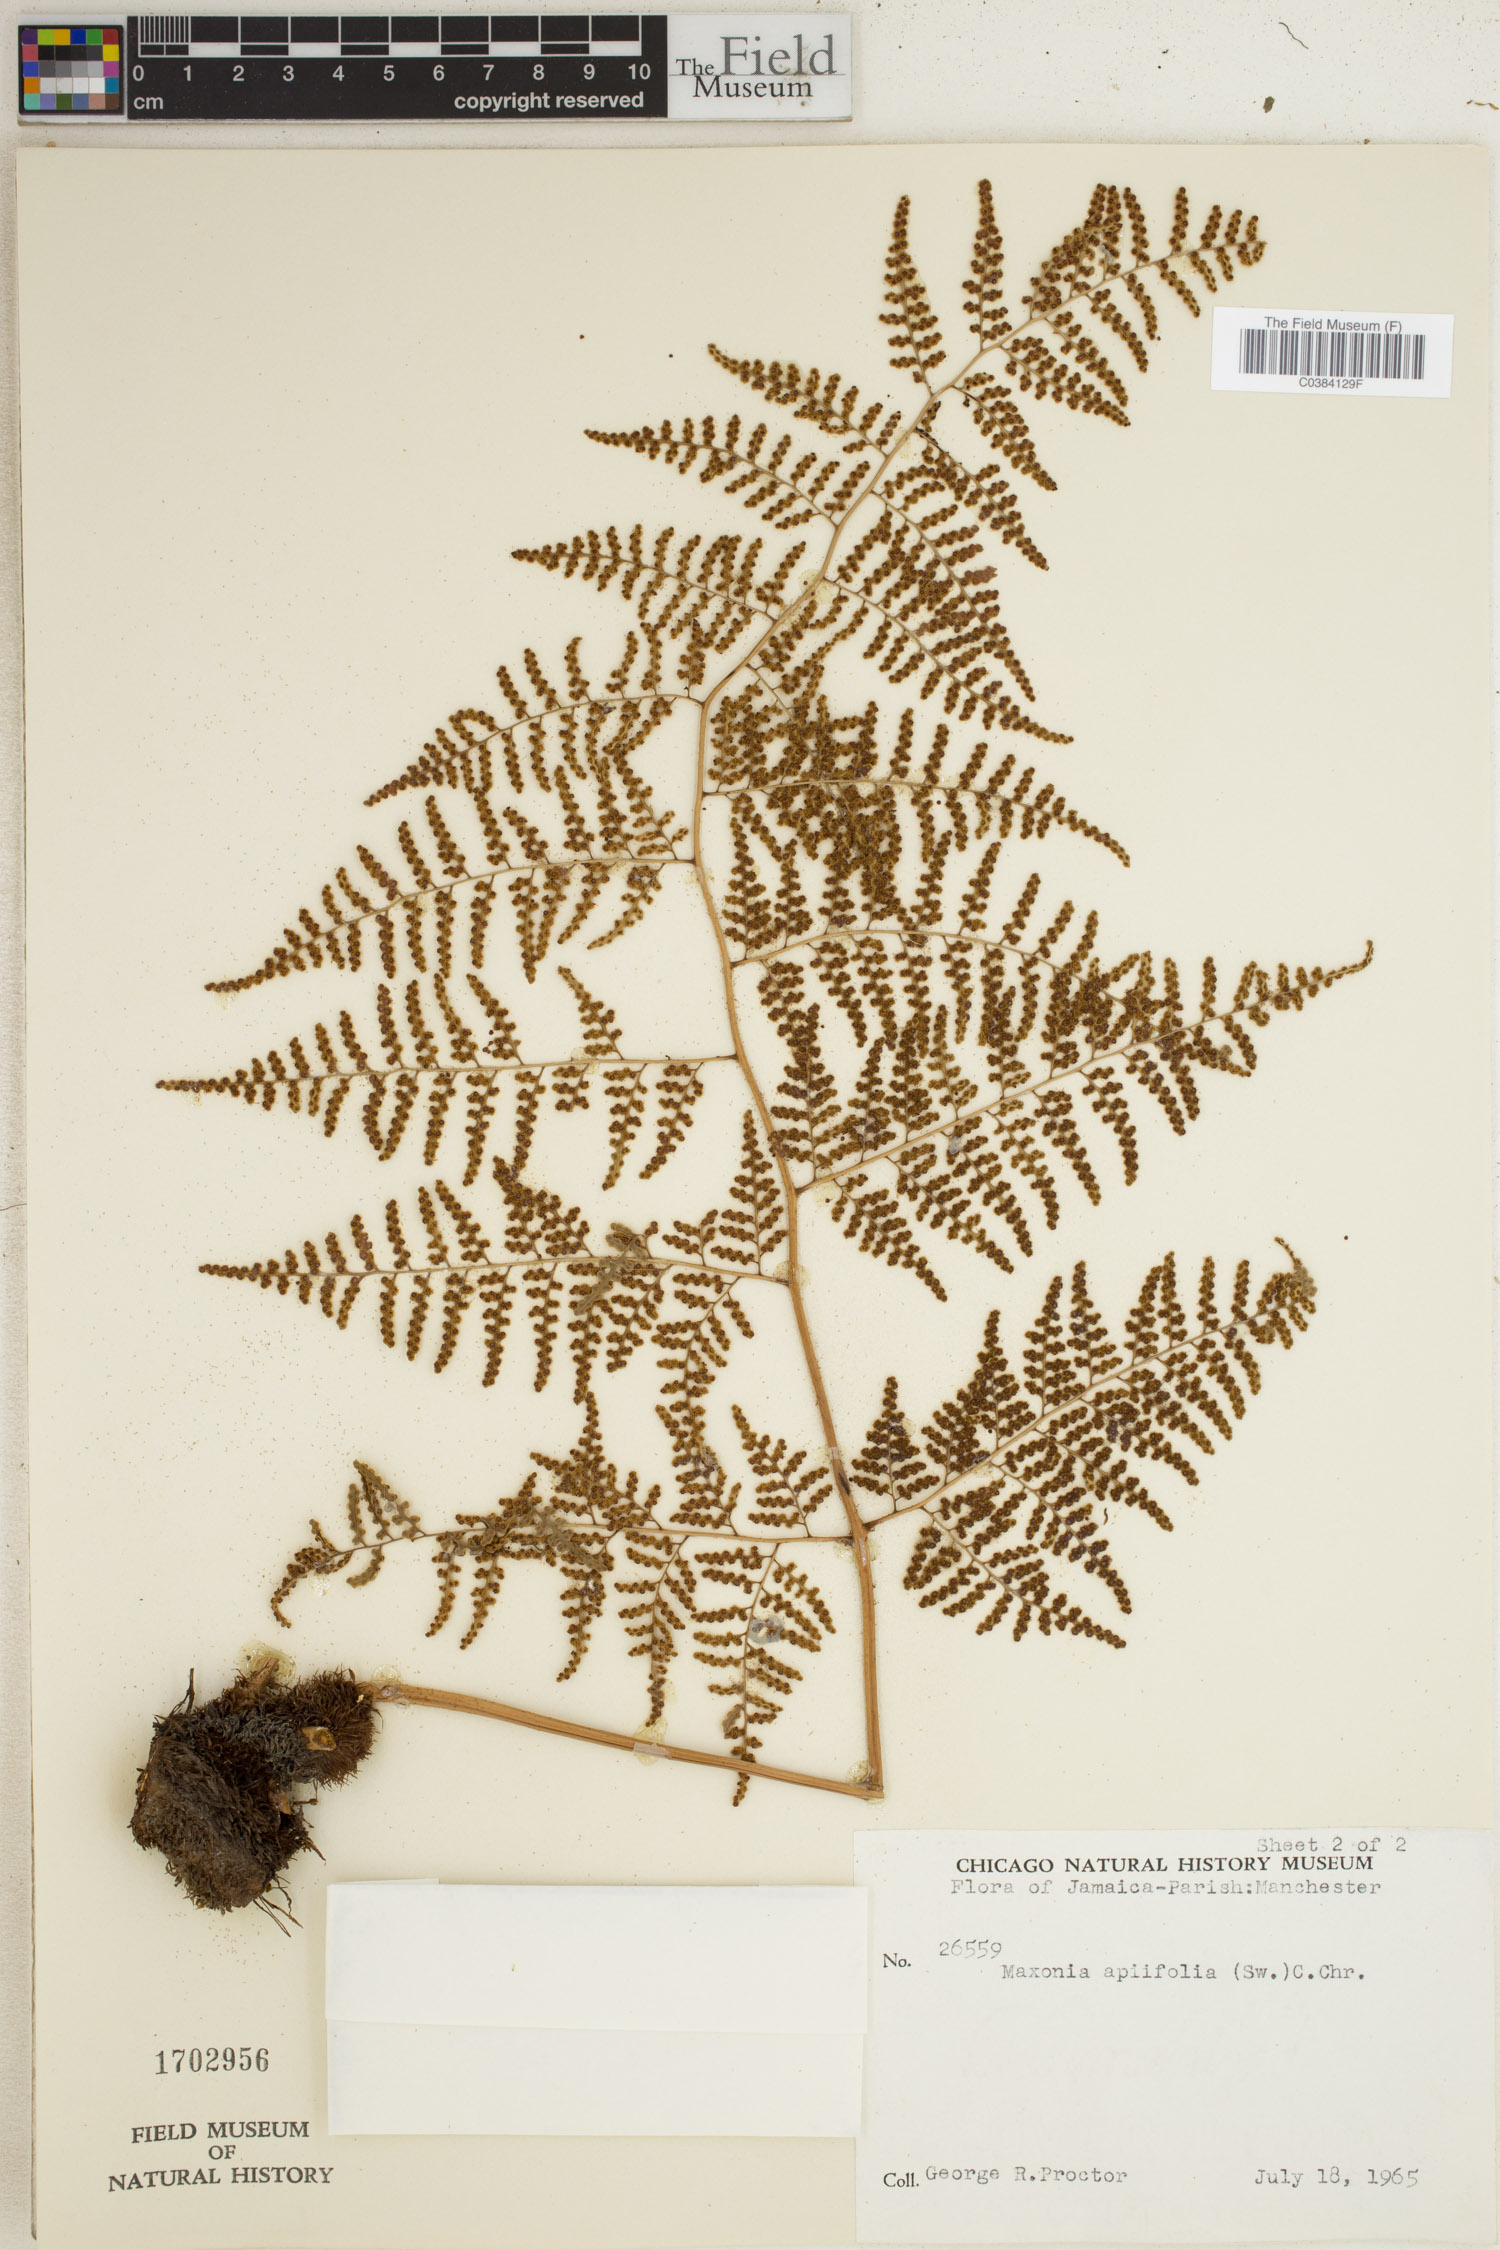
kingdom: Plantae
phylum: Tracheophyta
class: Polypodiopsida
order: Polypodiales
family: Dryopteridaceae
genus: Maxonia
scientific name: Maxonia apiifolia
